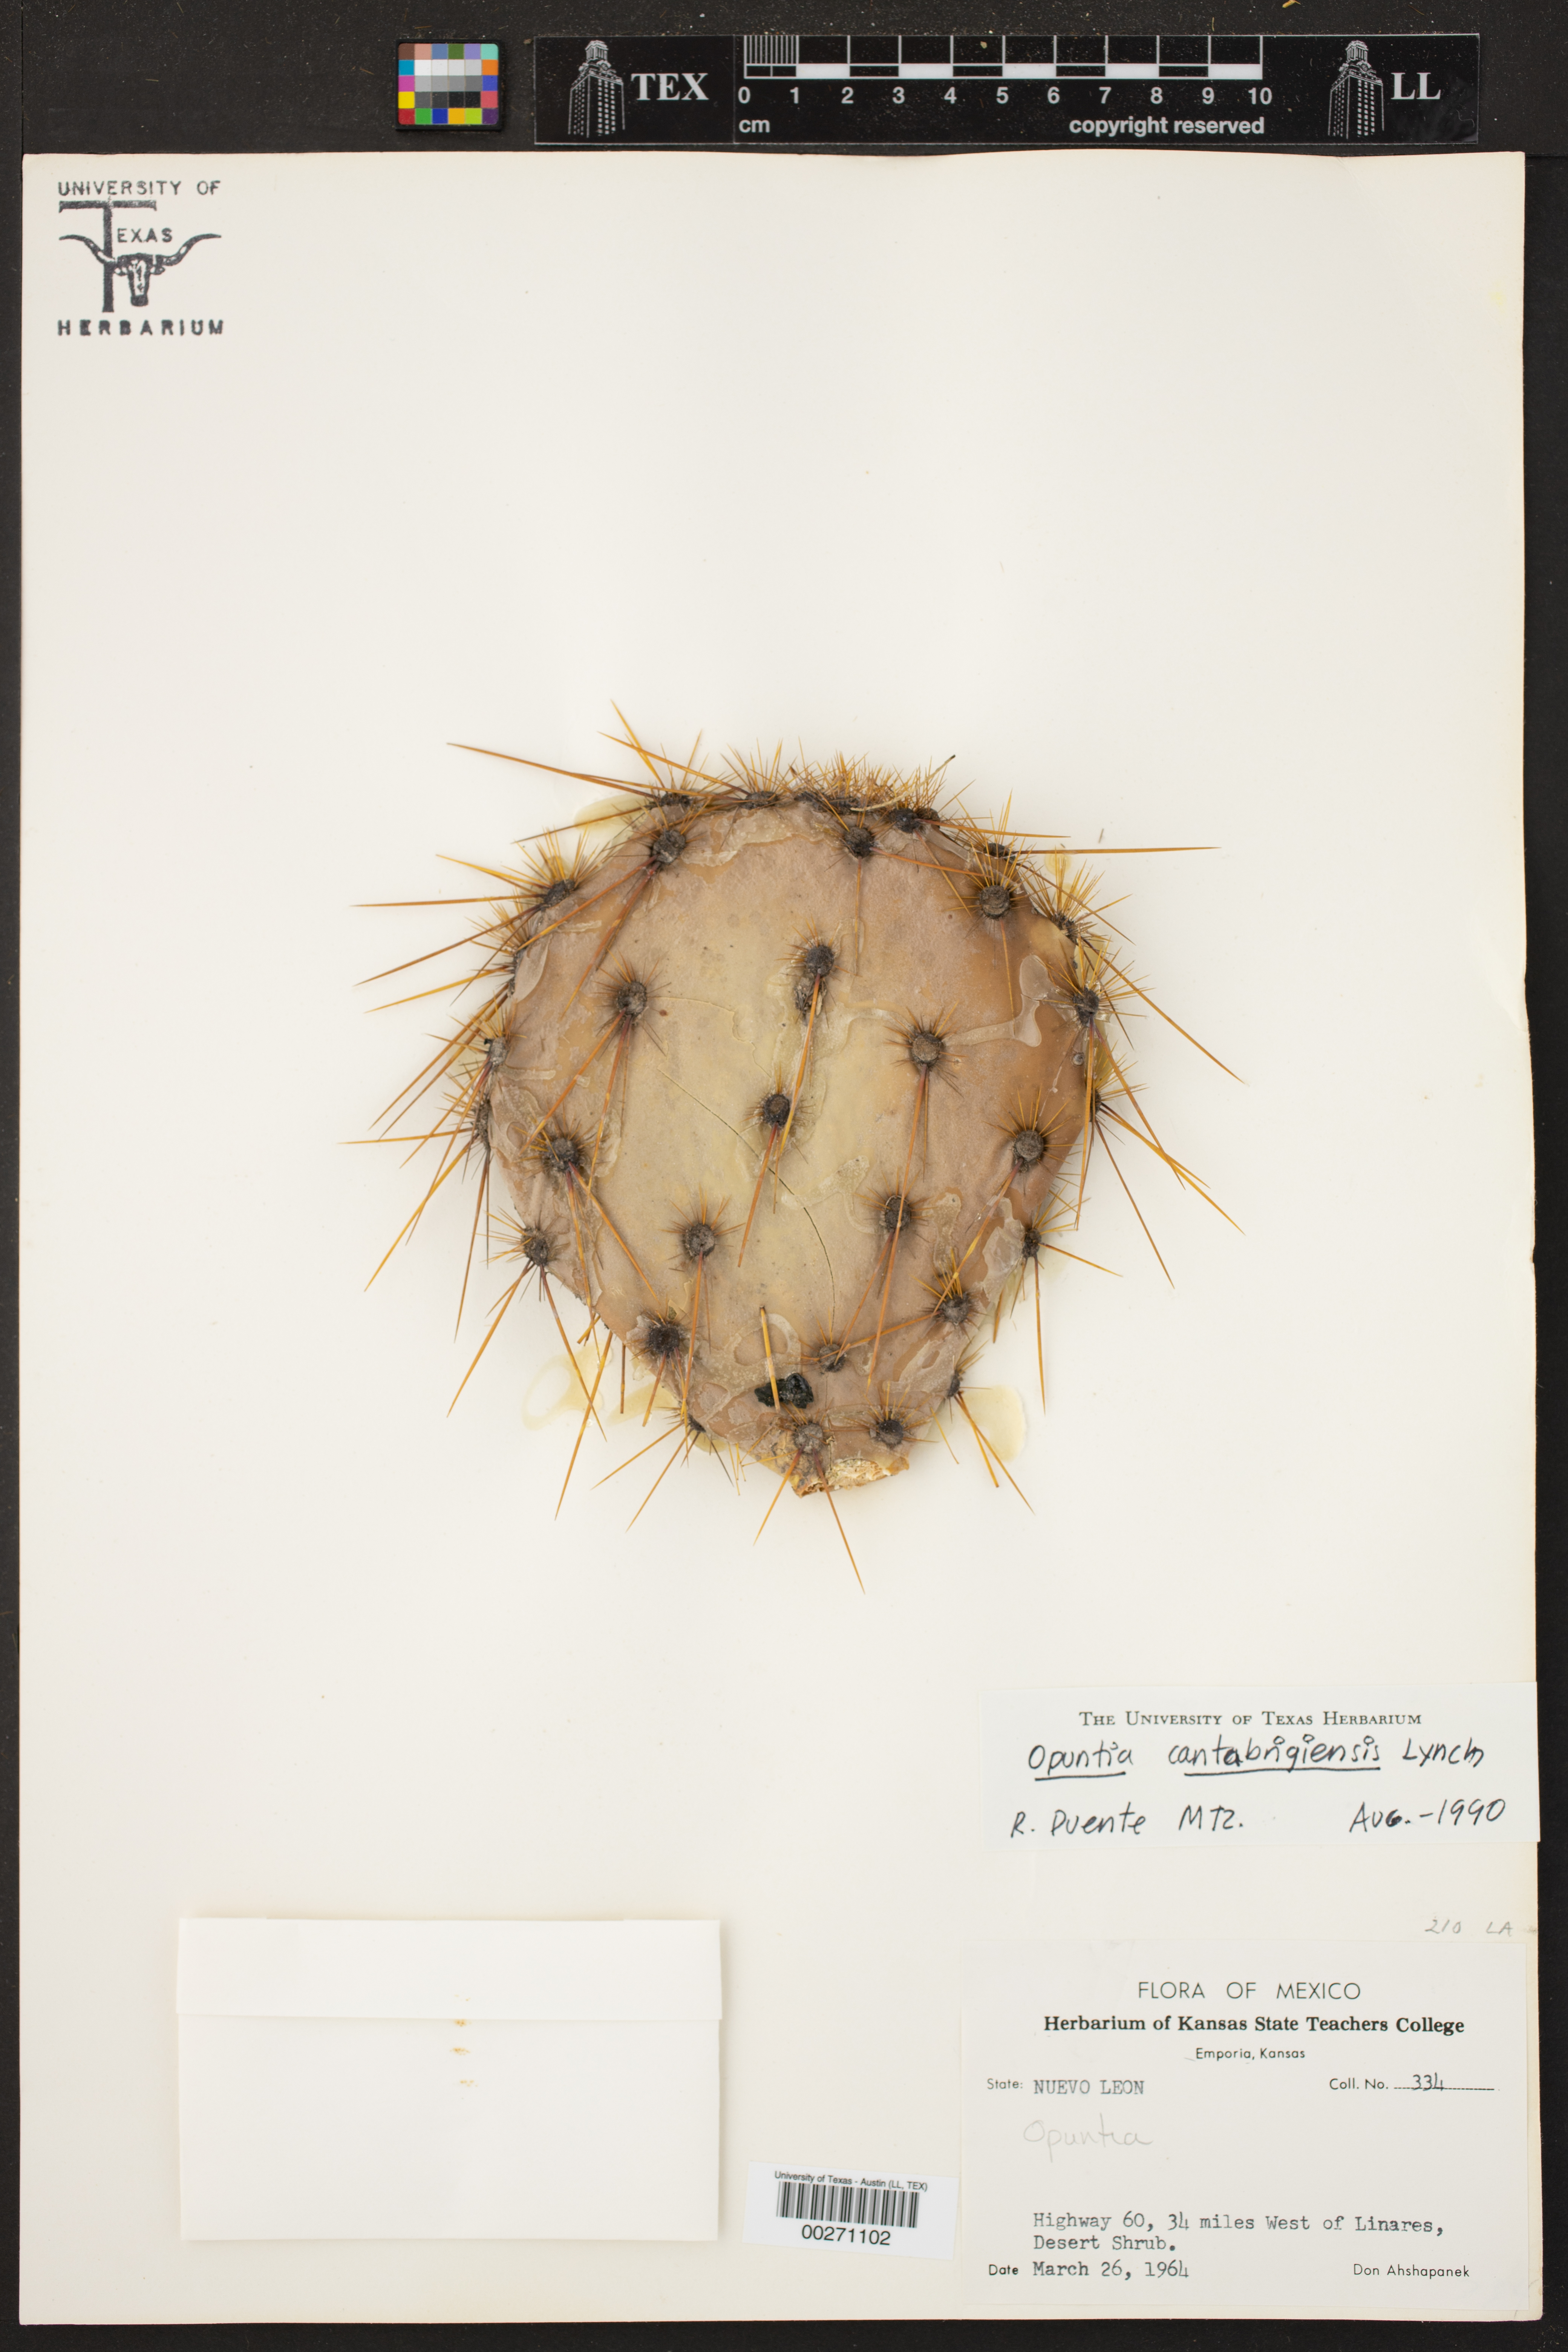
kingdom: Plantae
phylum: Tracheophyta
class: Magnoliopsida
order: Caryophyllales
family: Cactaceae
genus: Opuntia
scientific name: Opuntia engelmannii
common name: Cactus-apple
